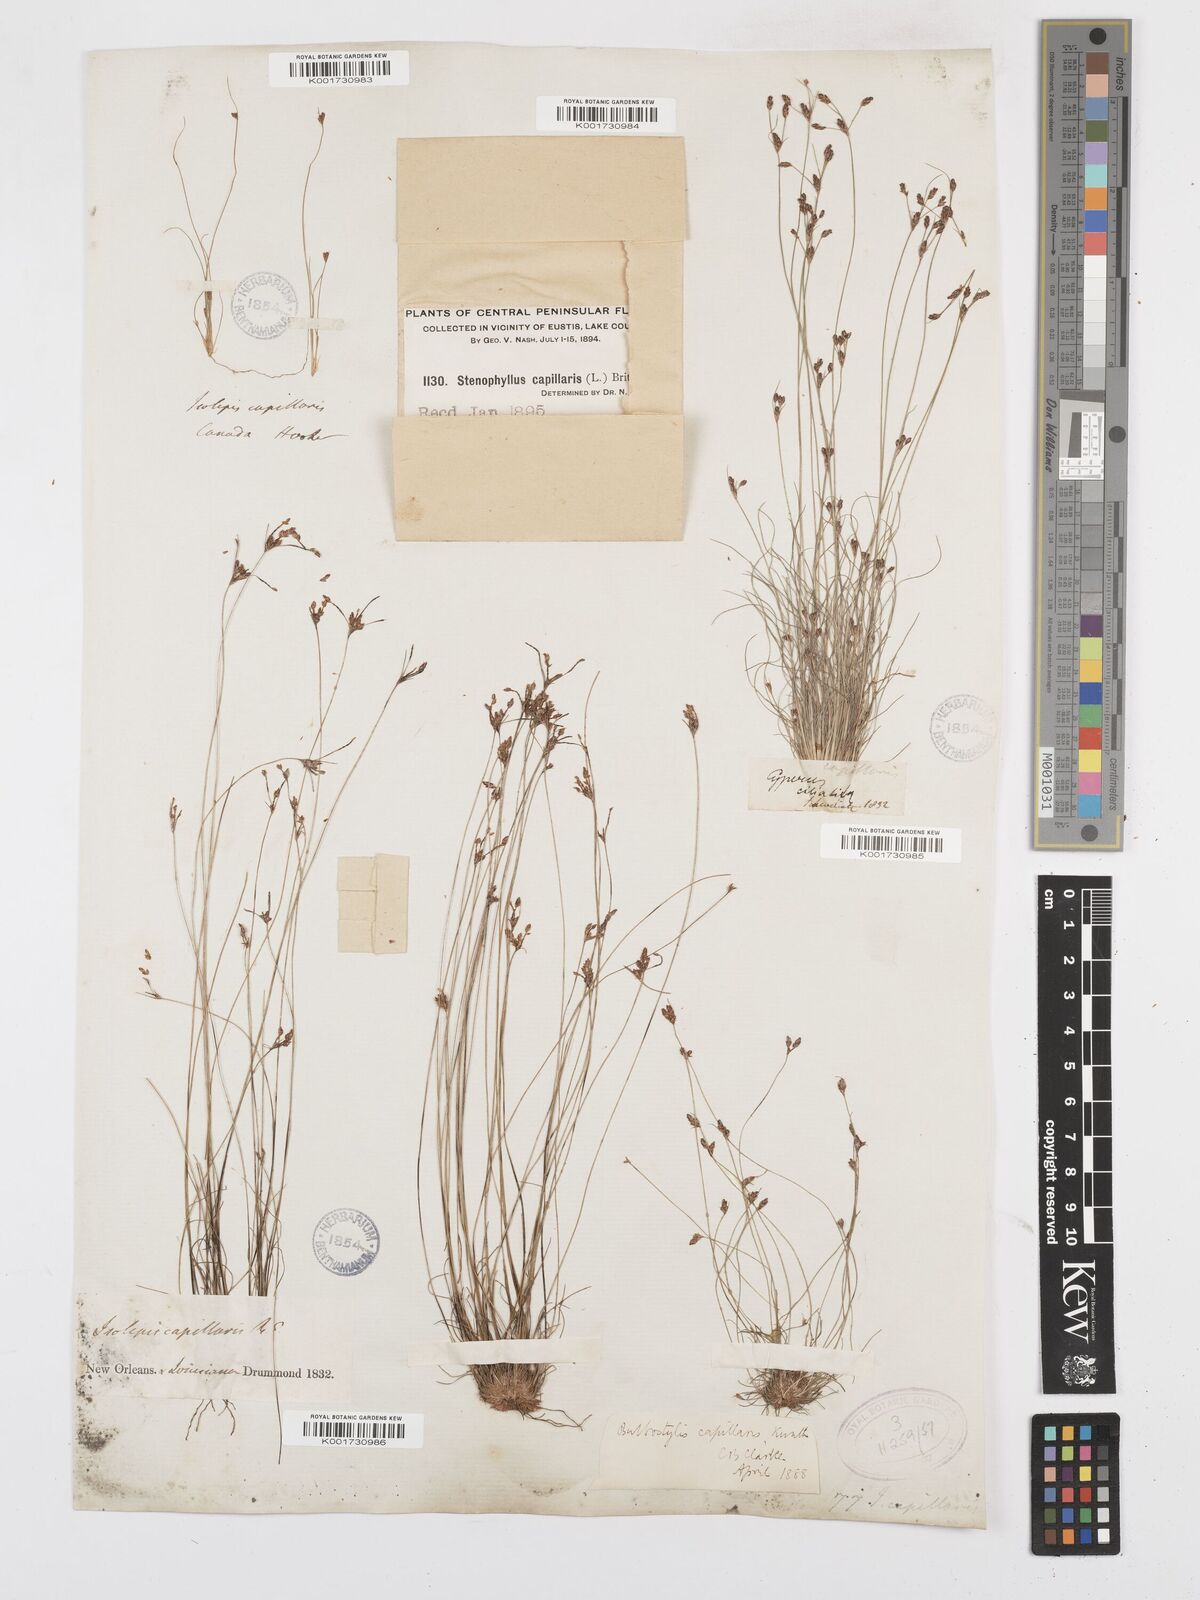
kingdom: Plantae
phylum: Tracheophyta
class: Liliopsida
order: Poales
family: Cyperaceae
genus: Bulbostylis
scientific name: Bulbostylis capillaris
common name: Densetuft hairsedge
